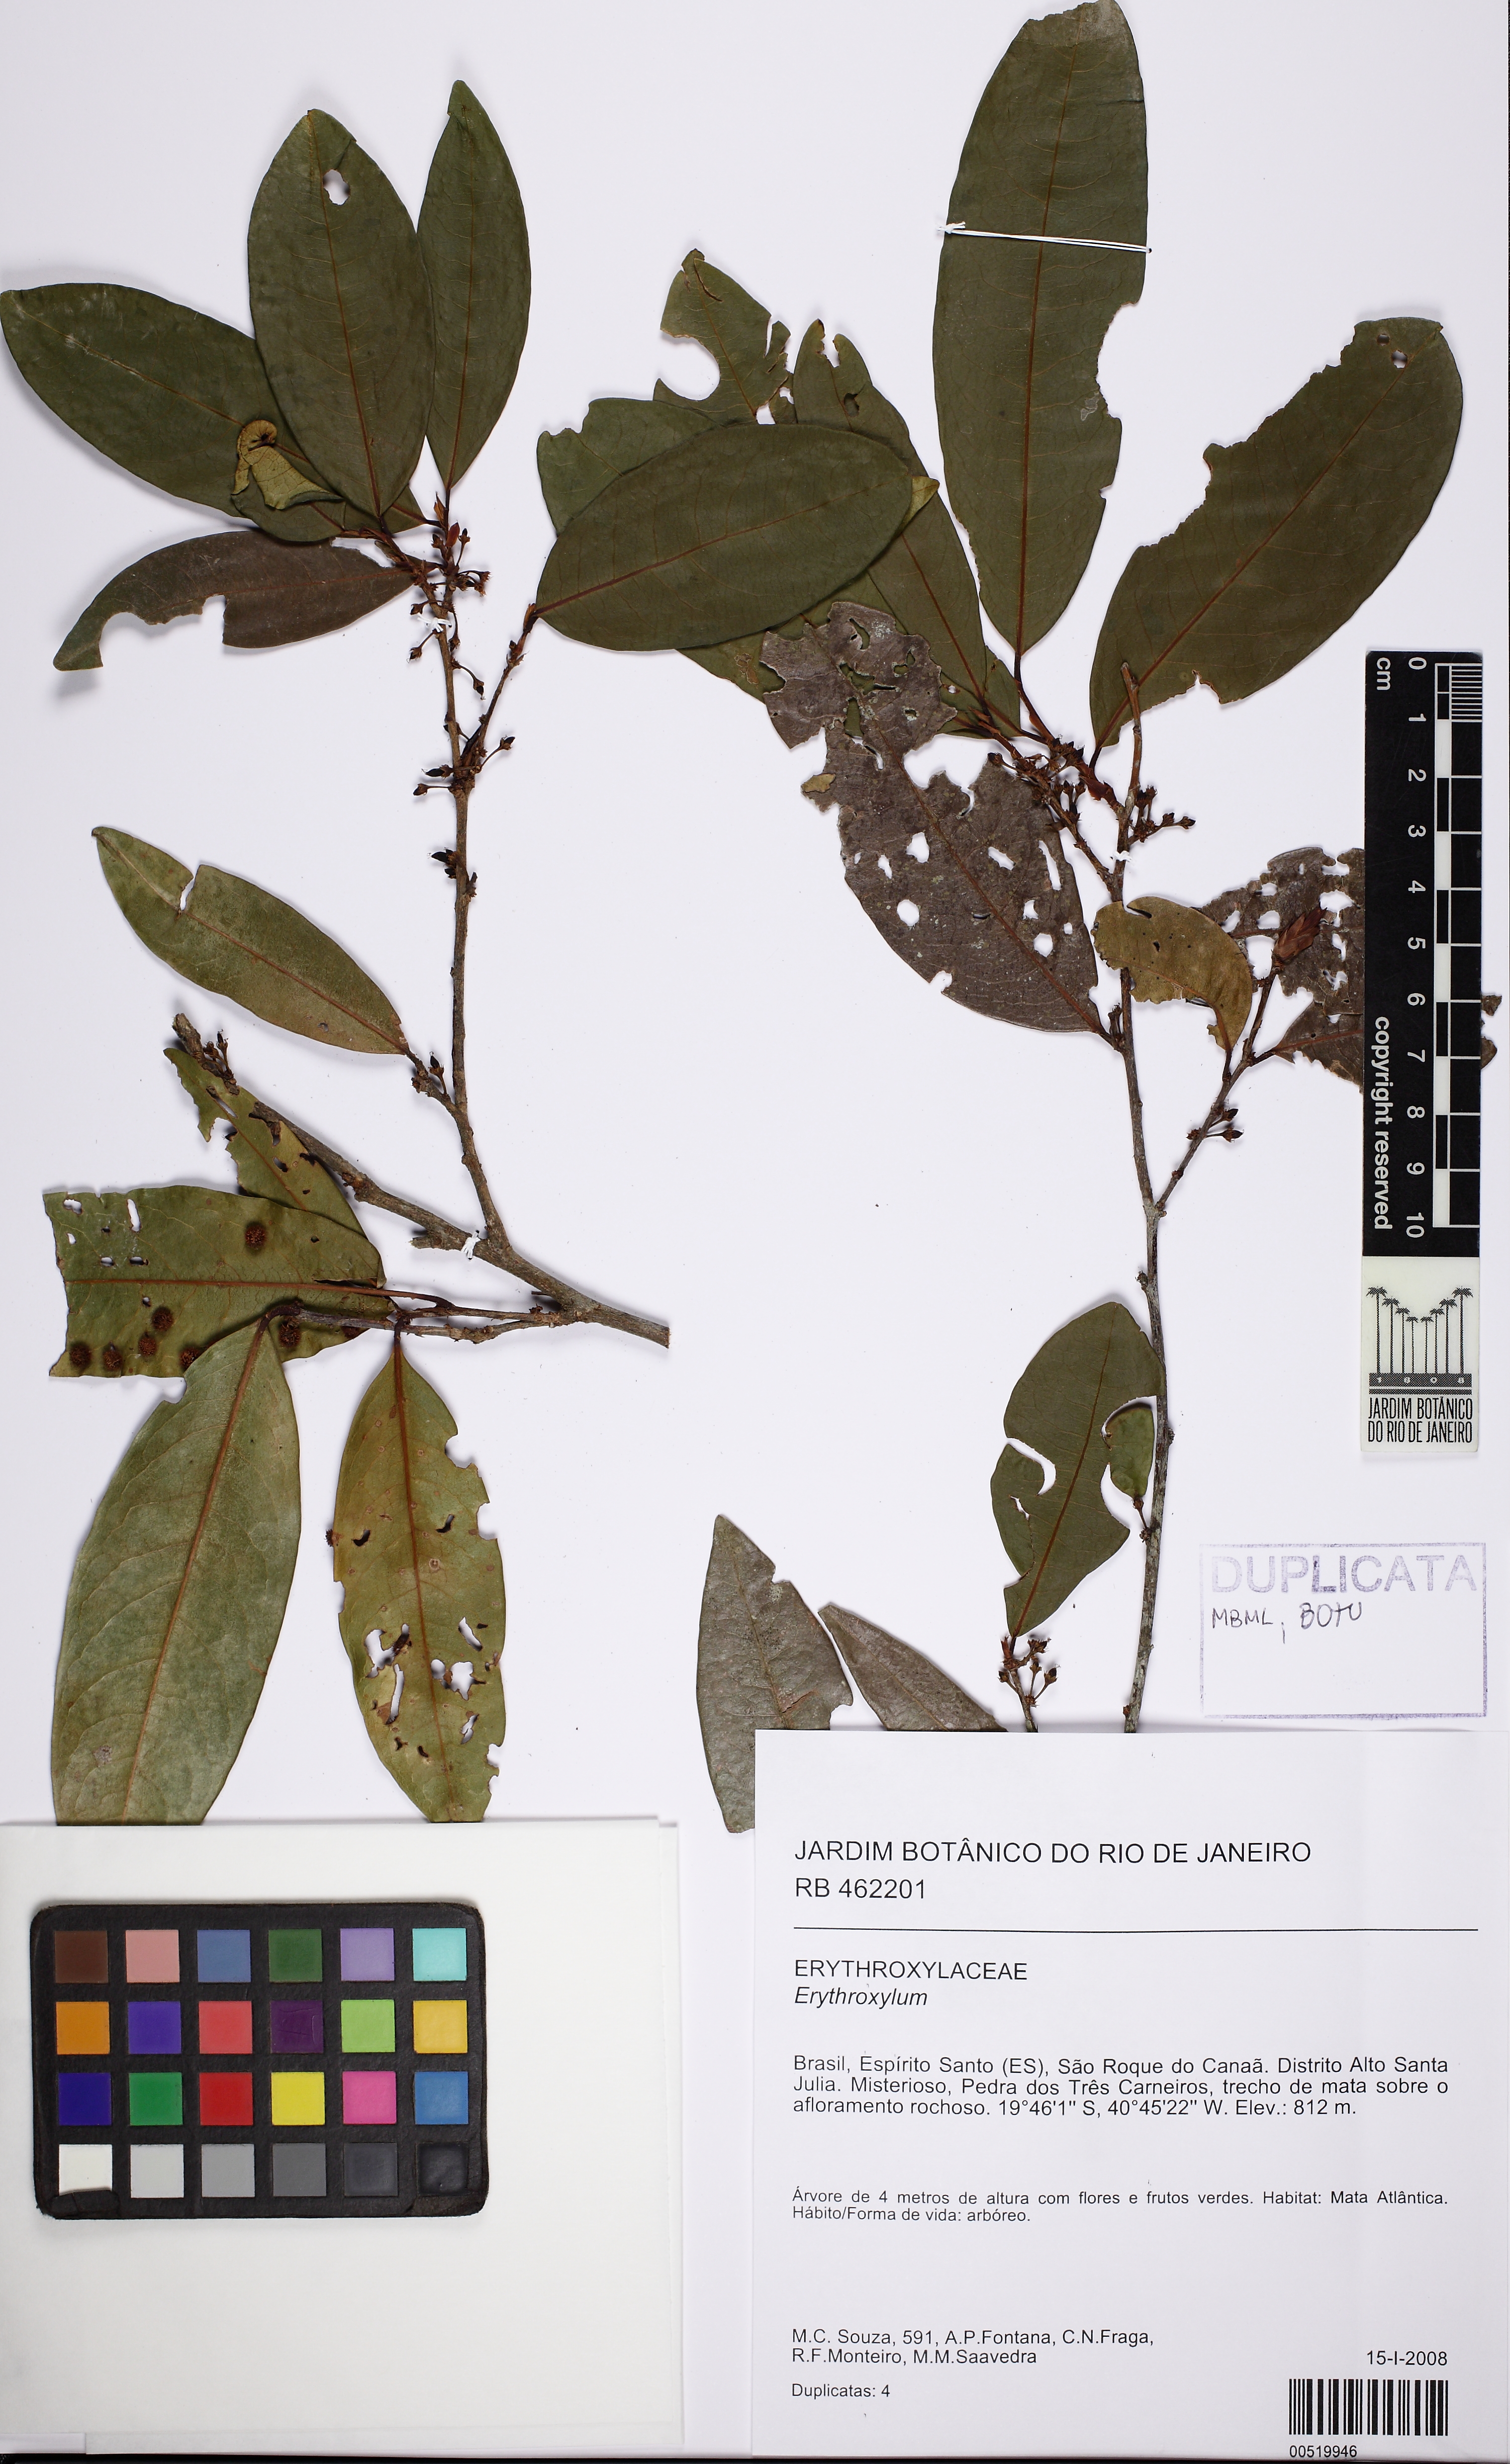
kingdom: Plantae
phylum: Tracheophyta
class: Magnoliopsida
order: Malpighiales
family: Erythroxylaceae
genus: Erythroxylum
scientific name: Erythroxylum citrifolium
